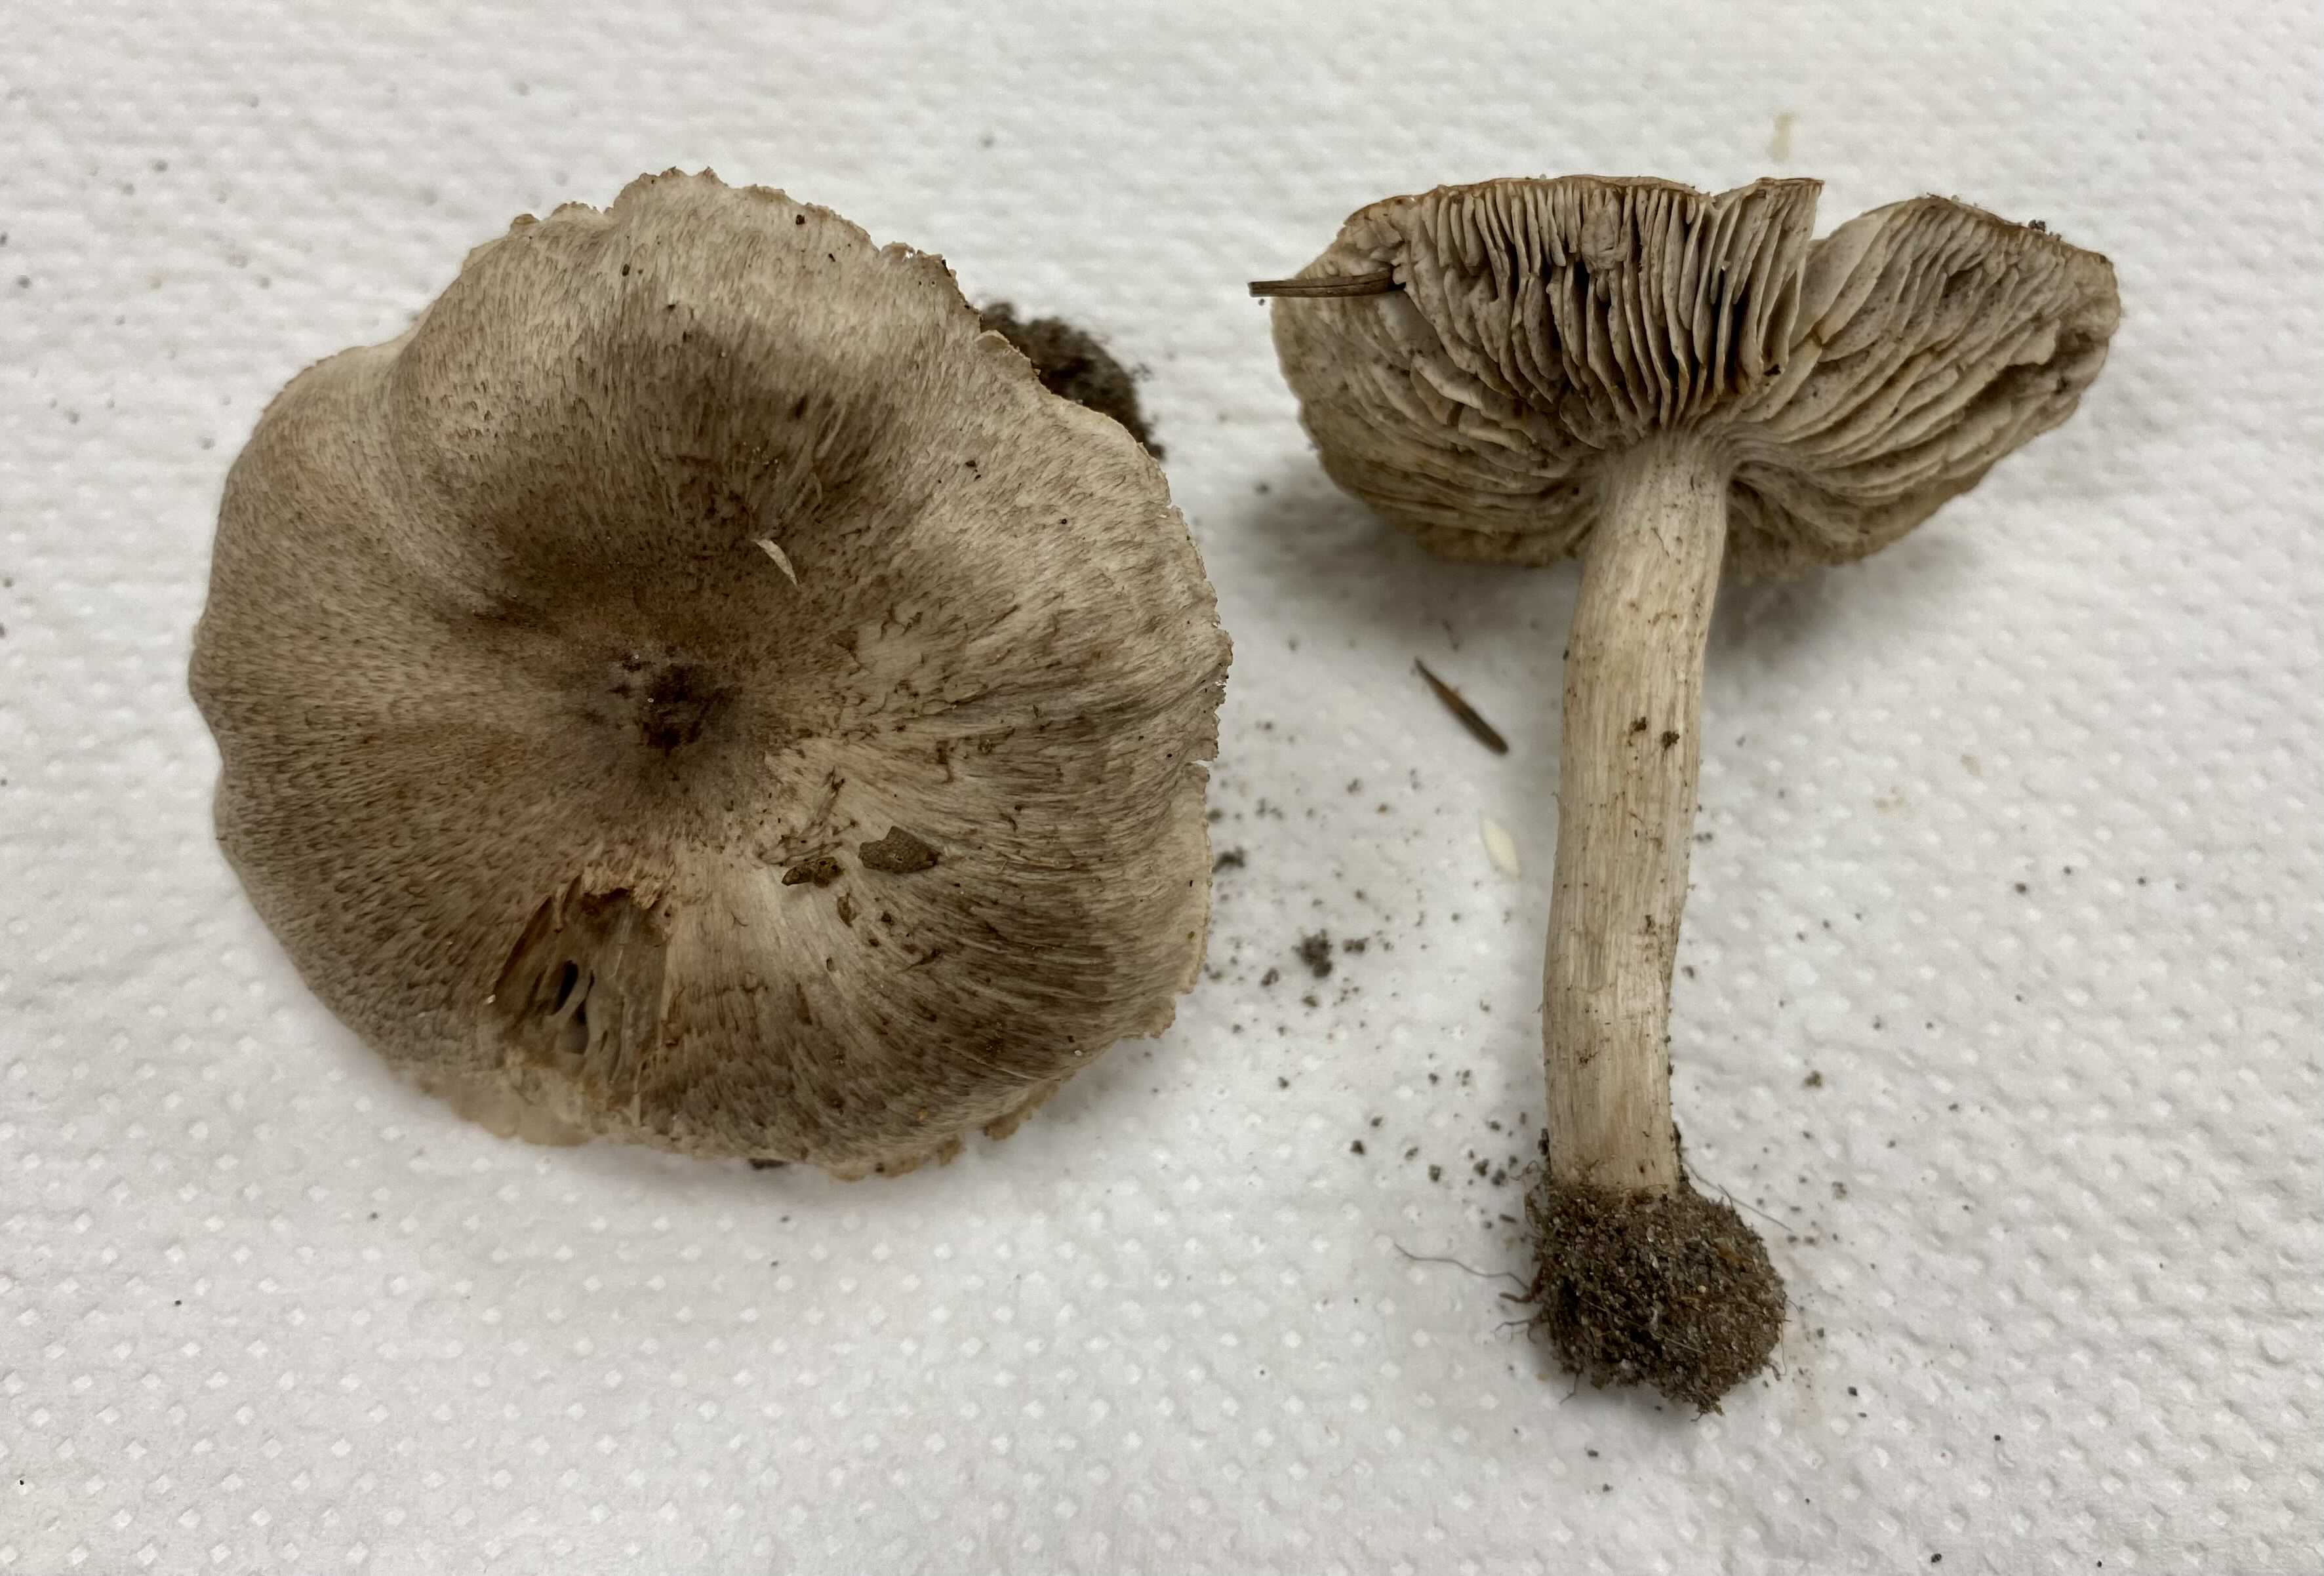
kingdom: Fungi
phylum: Basidiomycota
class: Agaricomycetes
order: Agaricales
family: Tricholomataceae
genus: Tricholoma
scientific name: Tricholoma sciodes
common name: stribet ridderhat
